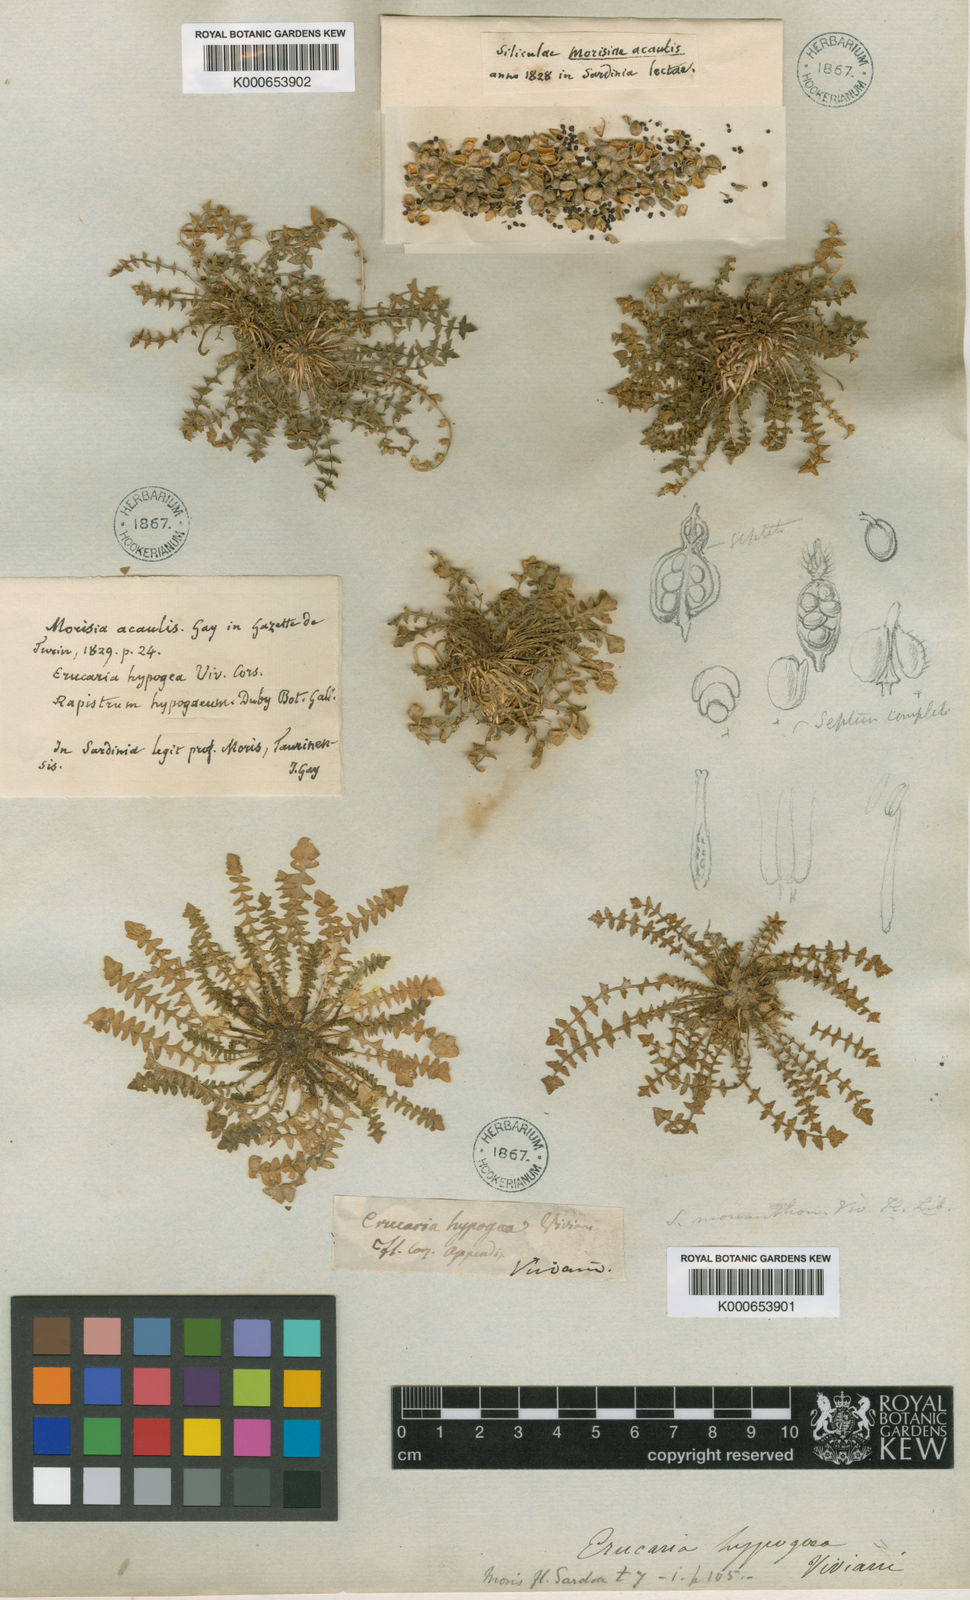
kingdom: Plantae
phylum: Tracheophyta
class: Magnoliopsida
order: Brassicales
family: Brassicaceae
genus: Morisia
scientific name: Morisia
